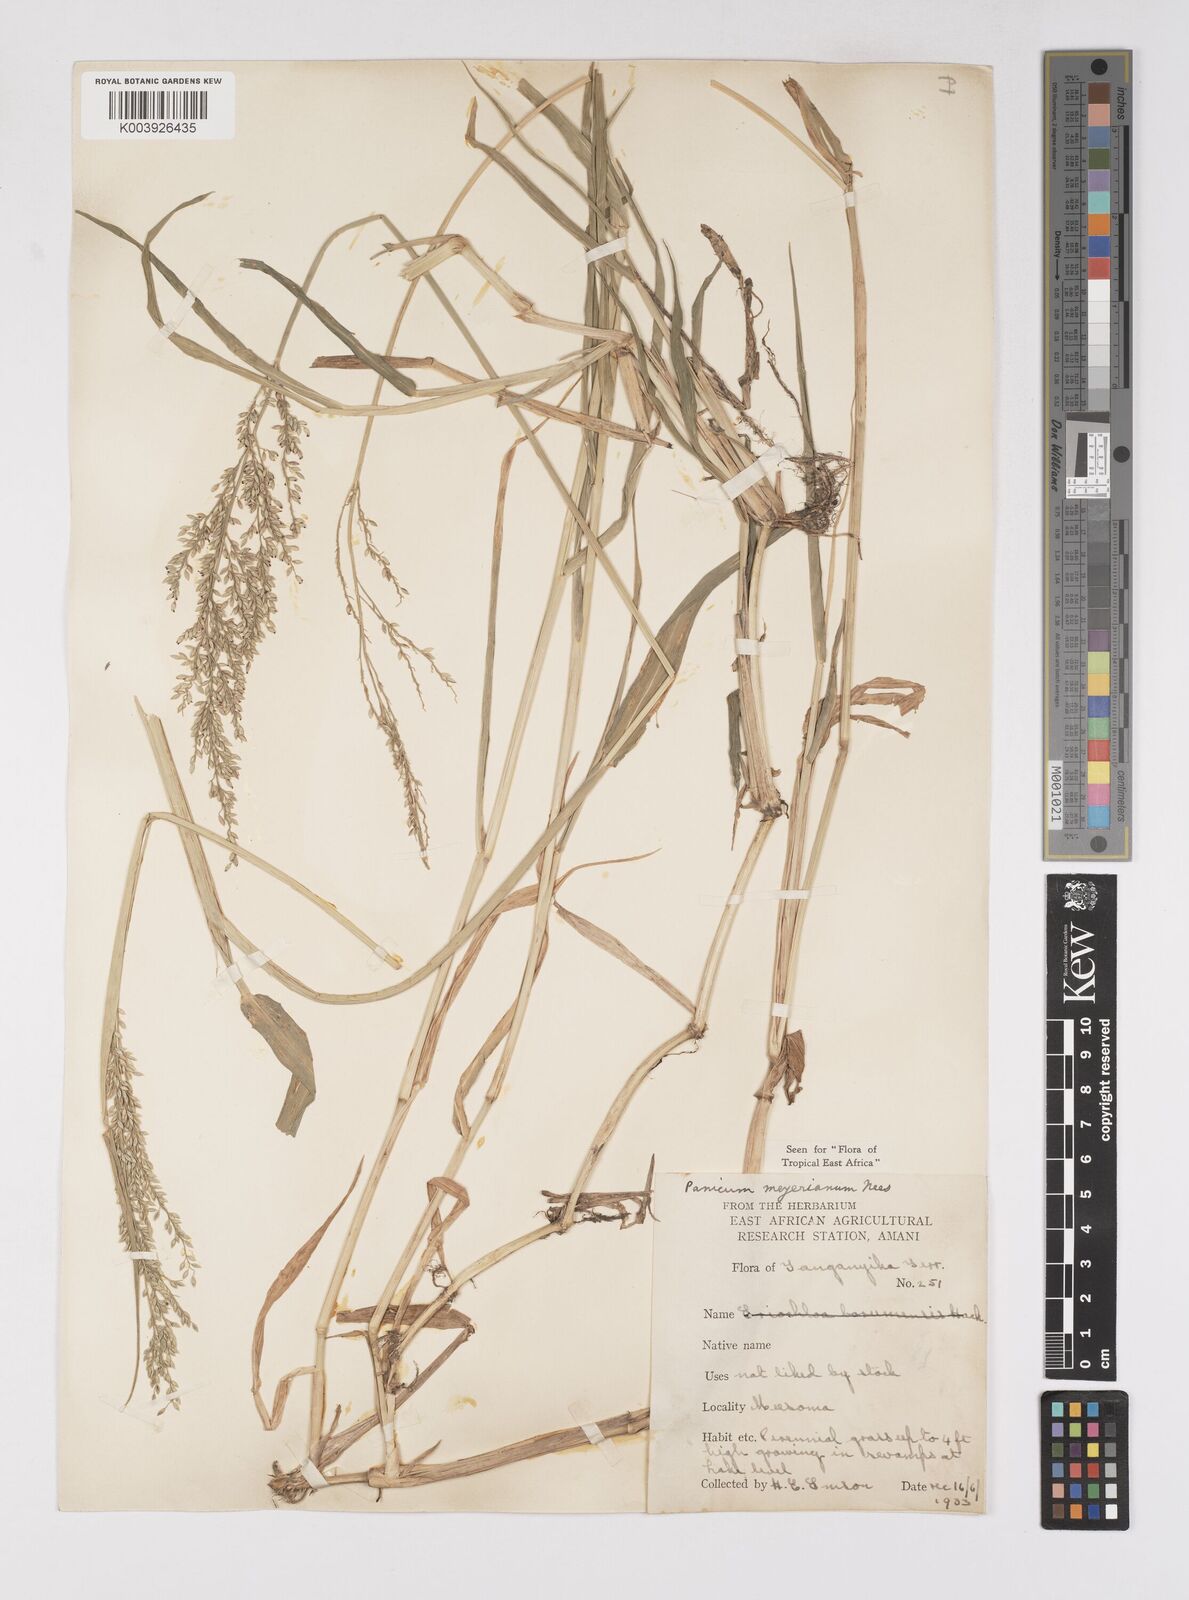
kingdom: Plantae
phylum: Tracheophyta
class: Liliopsida
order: Poales
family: Poaceae
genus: Eriochloa
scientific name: Eriochloa meyeriana
